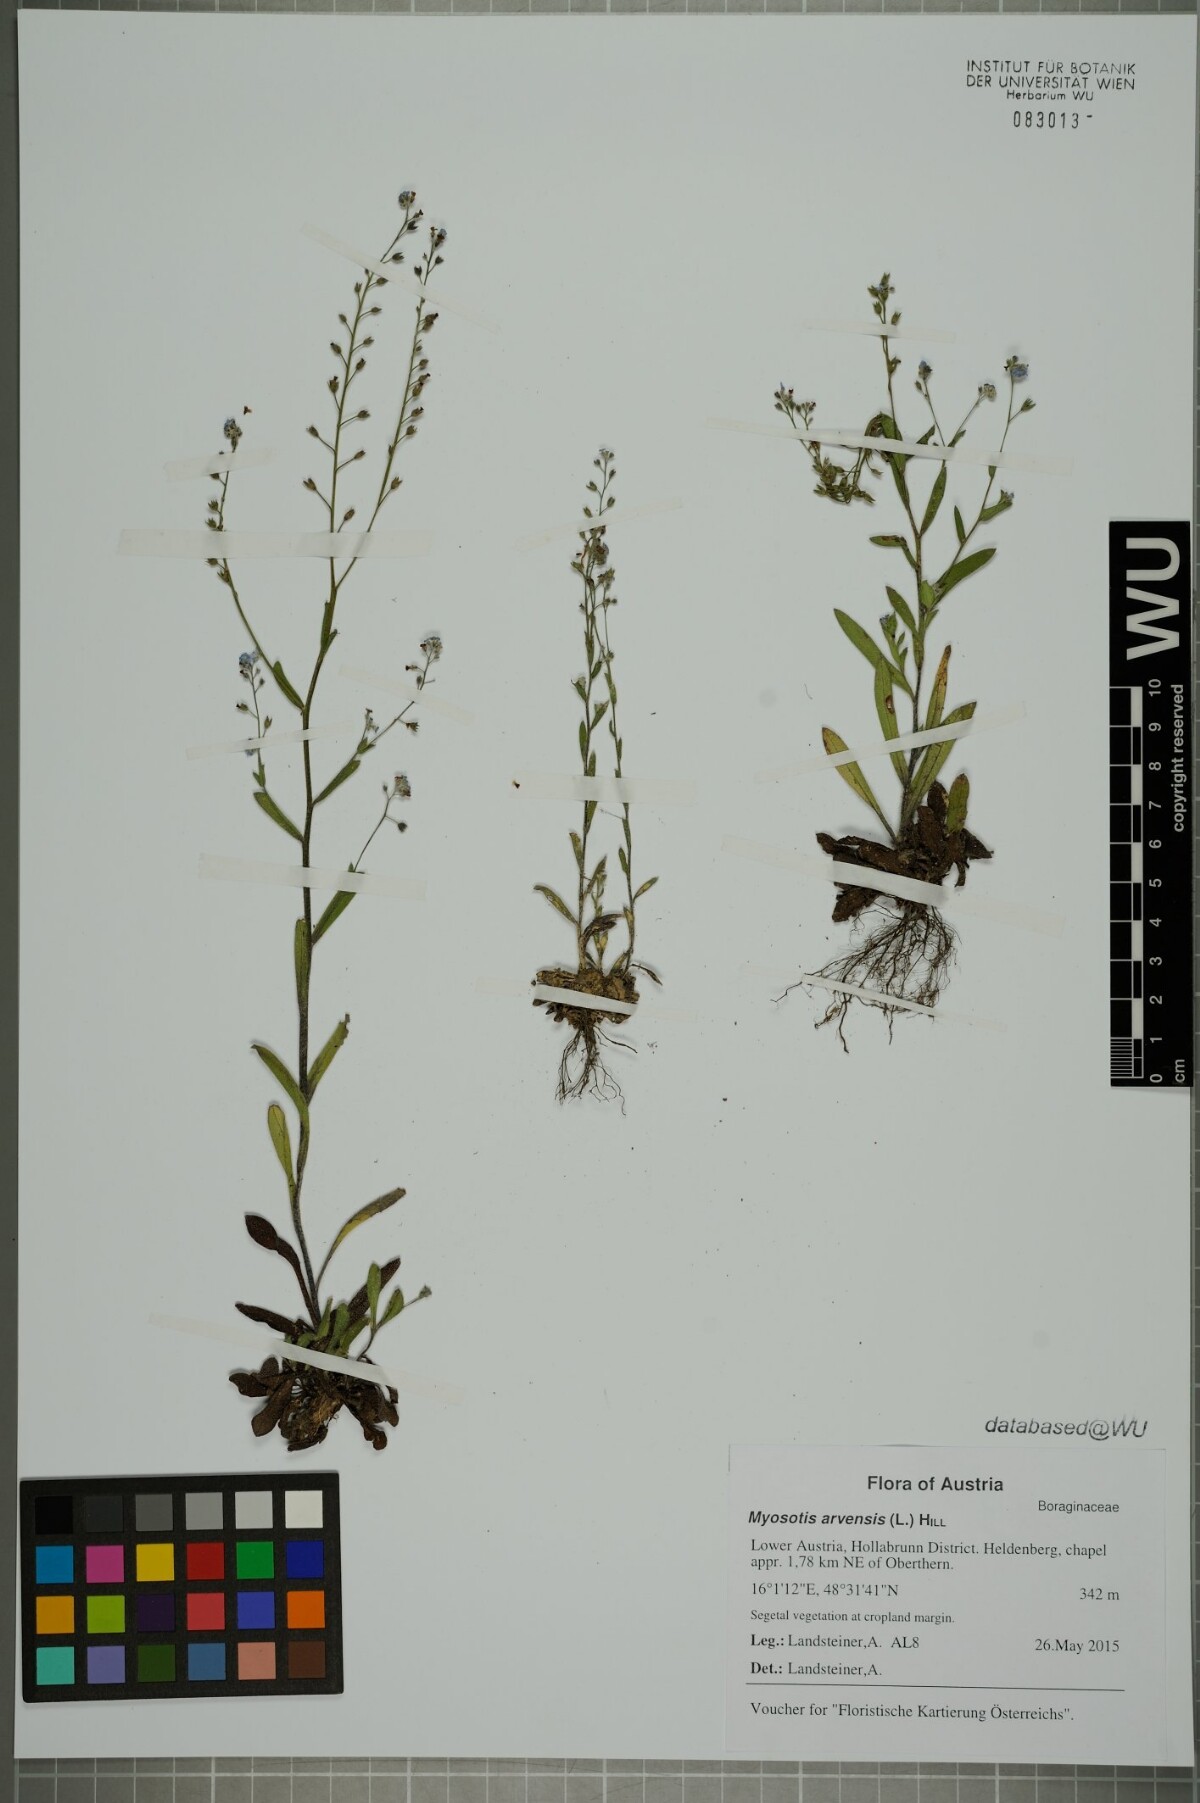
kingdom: Plantae
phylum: Tracheophyta
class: Magnoliopsida
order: Boraginales
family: Boraginaceae
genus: Myosotis
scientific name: Myosotis arvensis
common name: Field forget-me-not
